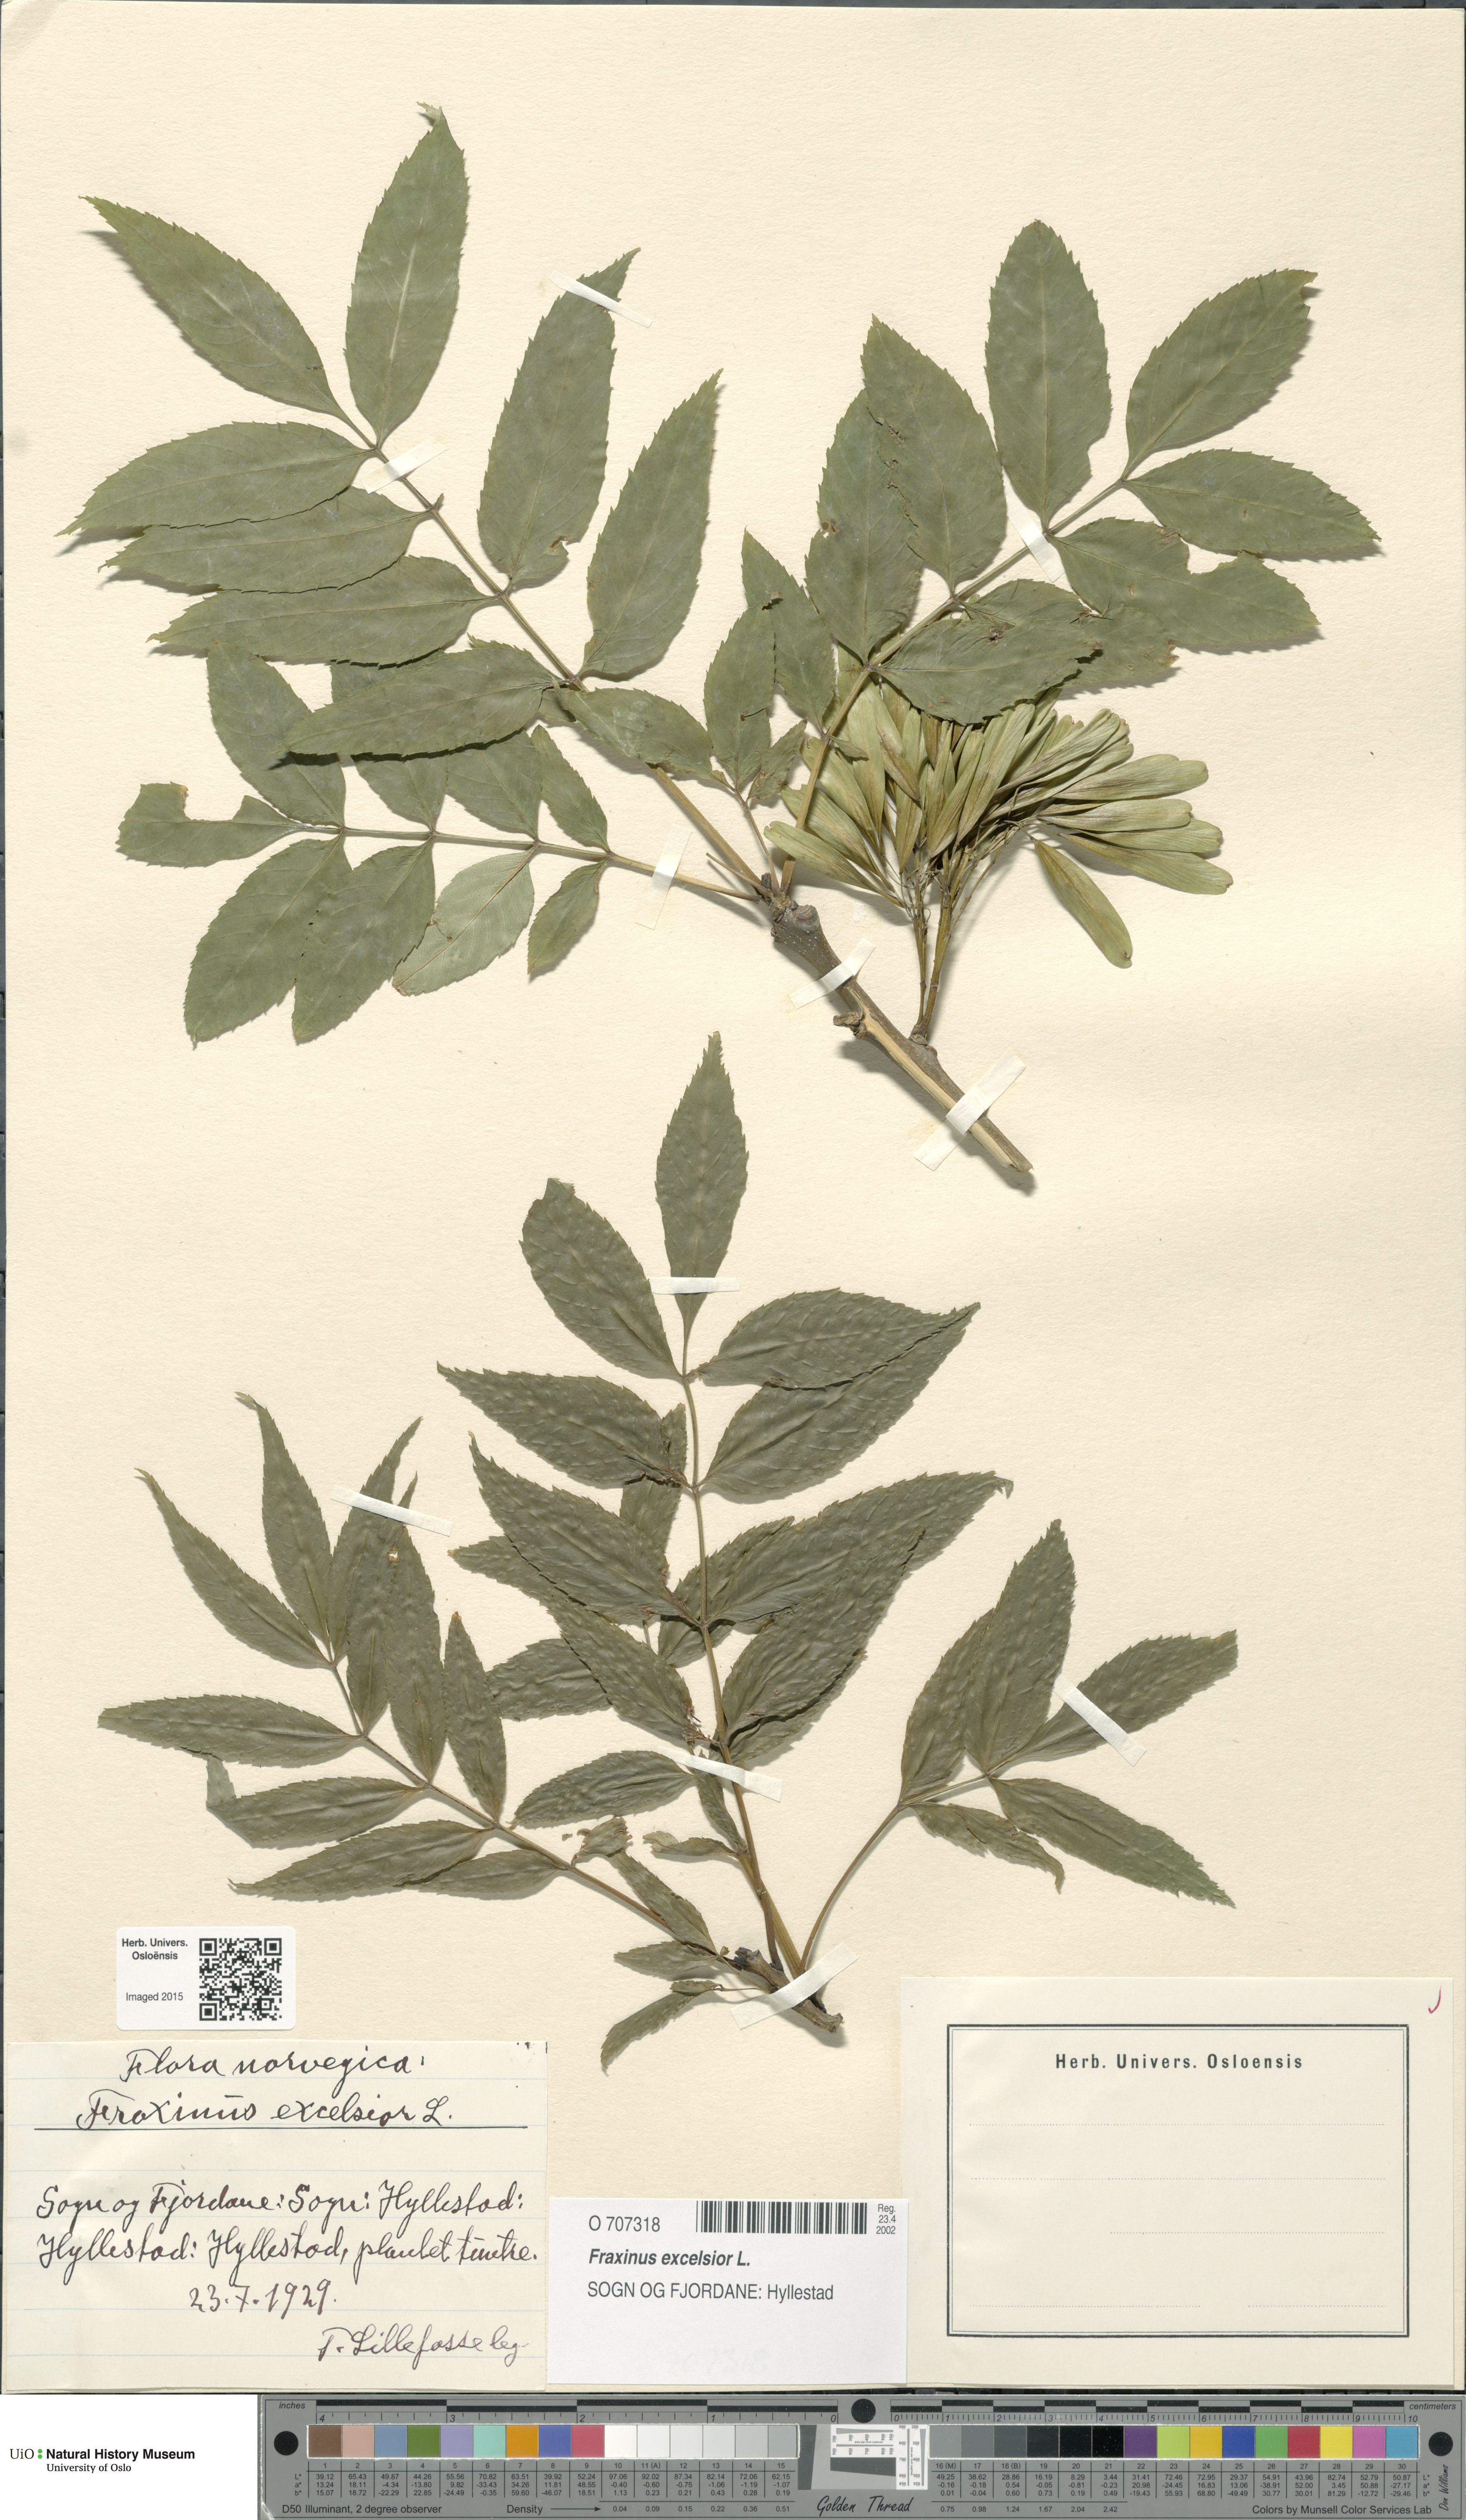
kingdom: Plantae
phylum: Tracheophyta
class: Magnoliopsida
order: Lamiales
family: Oleaceae
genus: Fraxinus
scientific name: Fraxinus excelsior
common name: European ash
